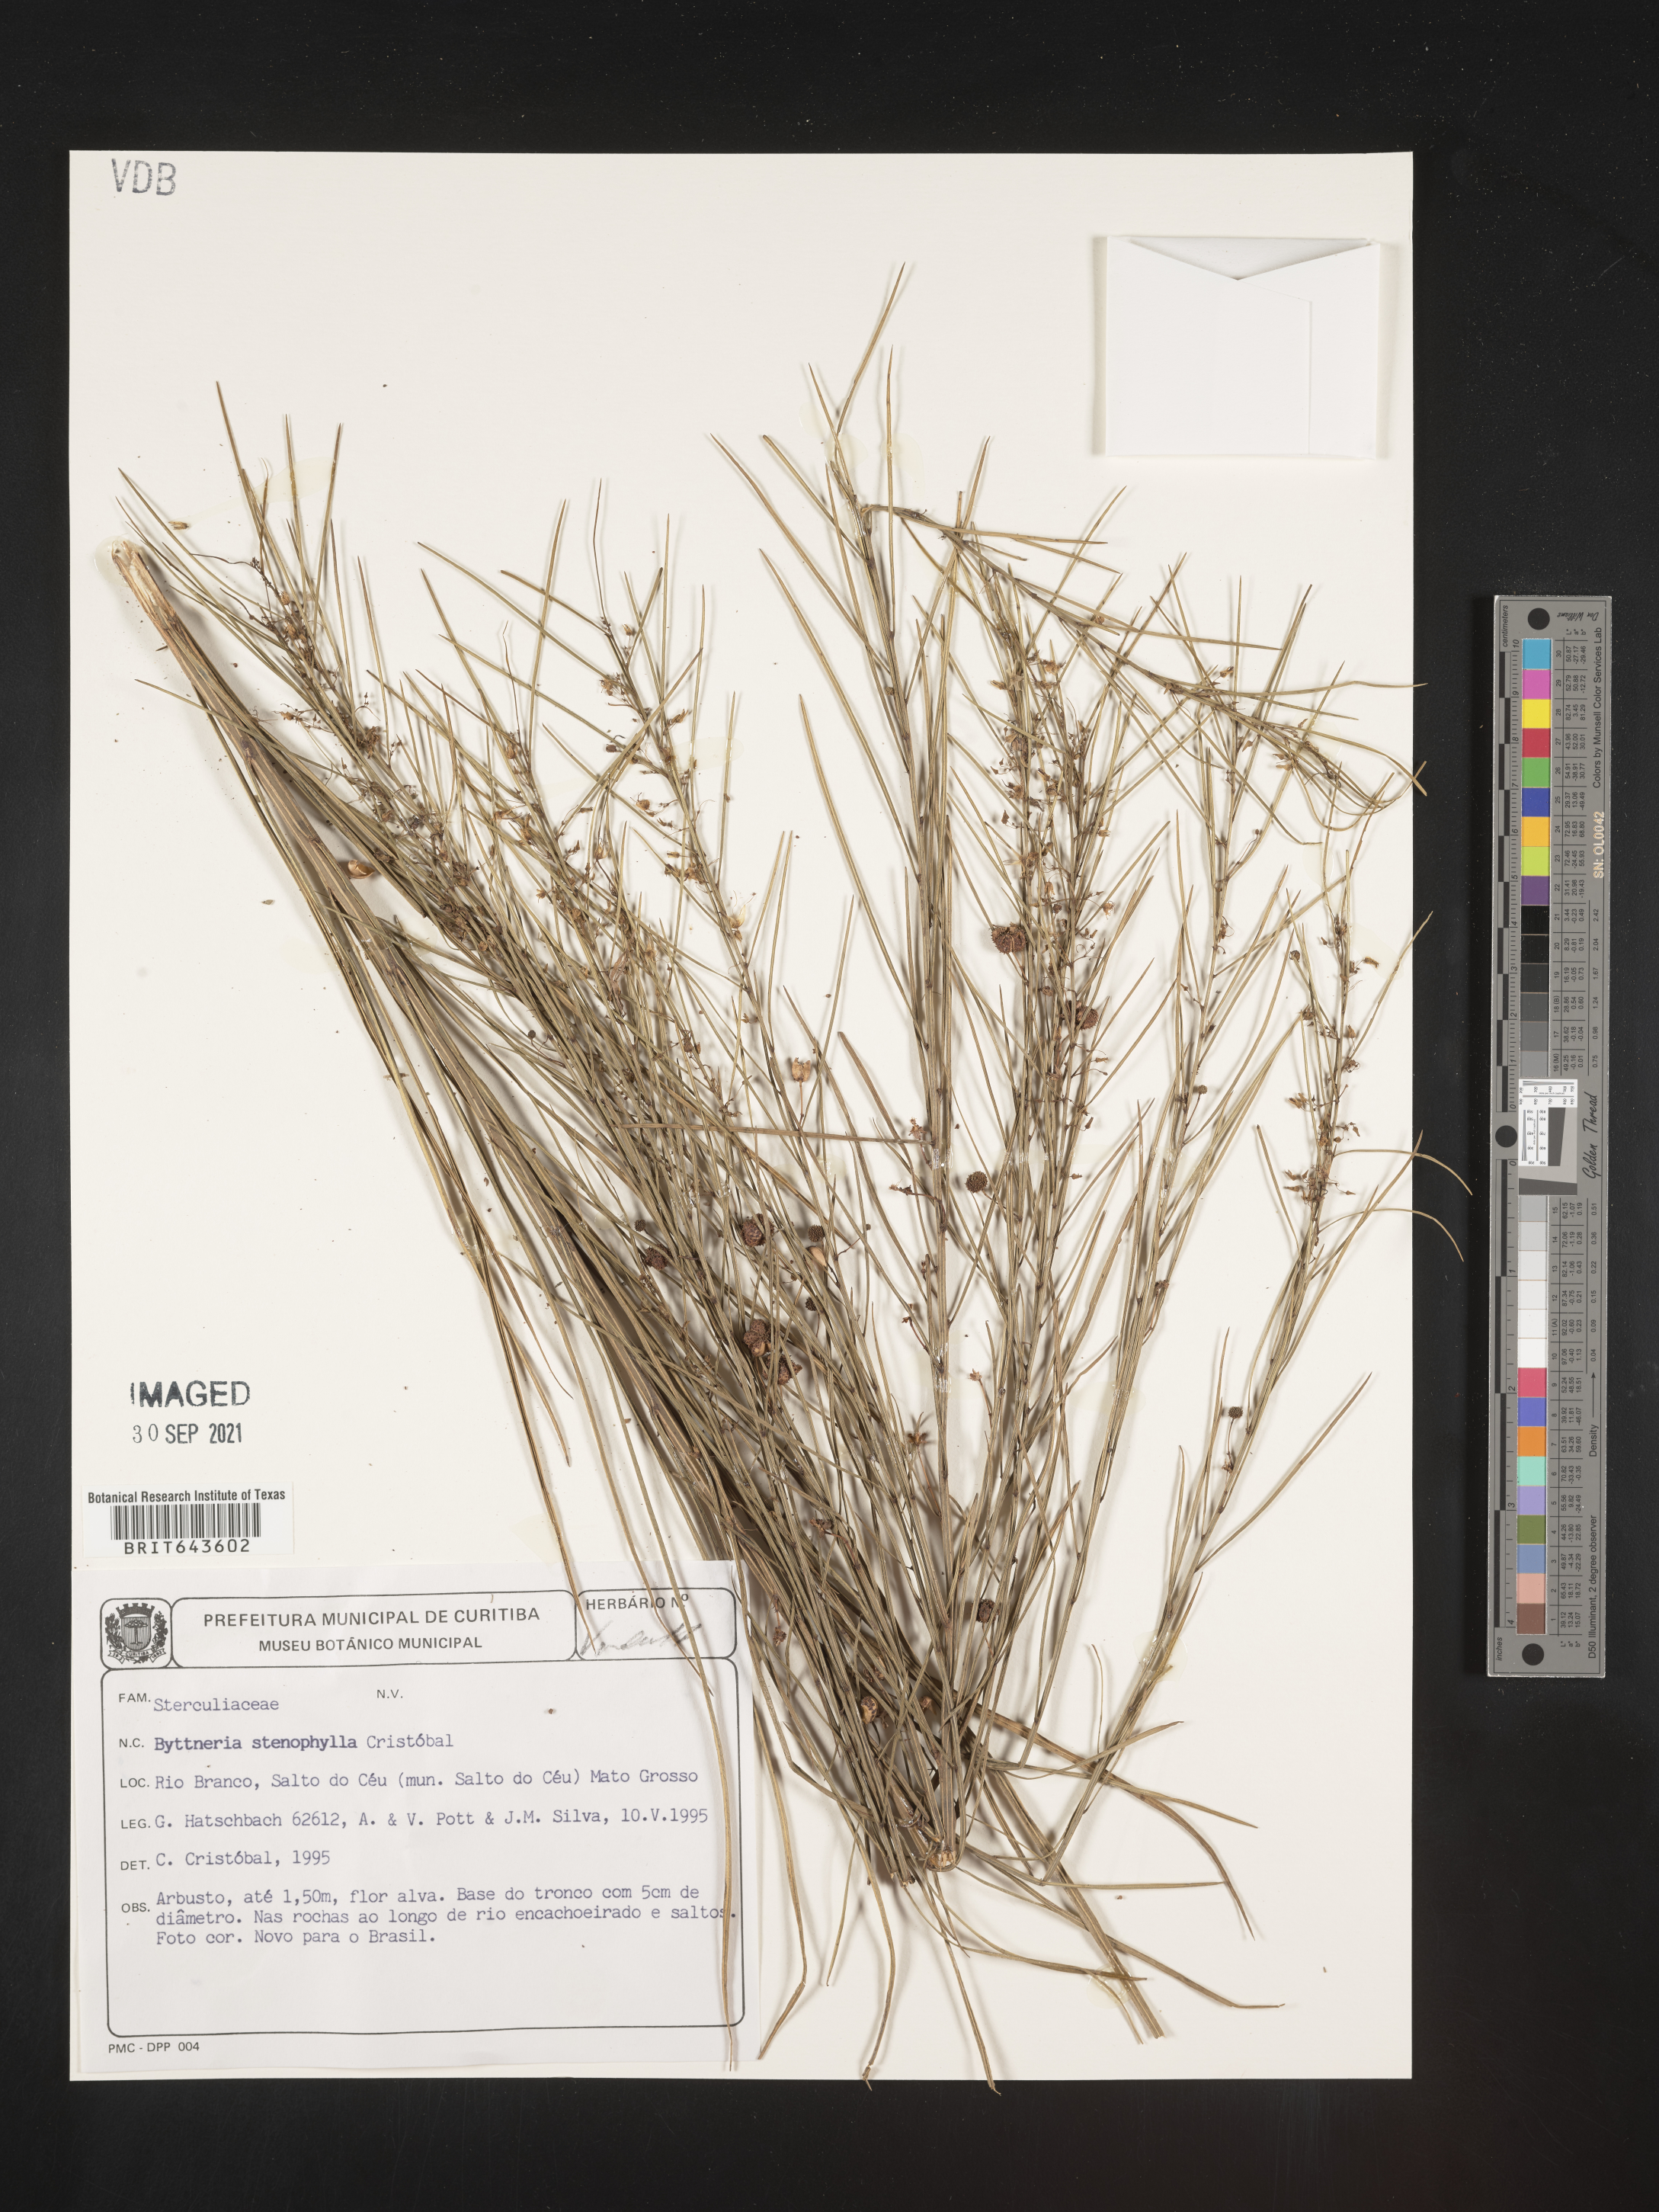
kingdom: Plantae
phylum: Tracheophyta
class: Magnoliopsida
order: Malvales
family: Malvaceae
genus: Byttneria
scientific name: Byttneria
